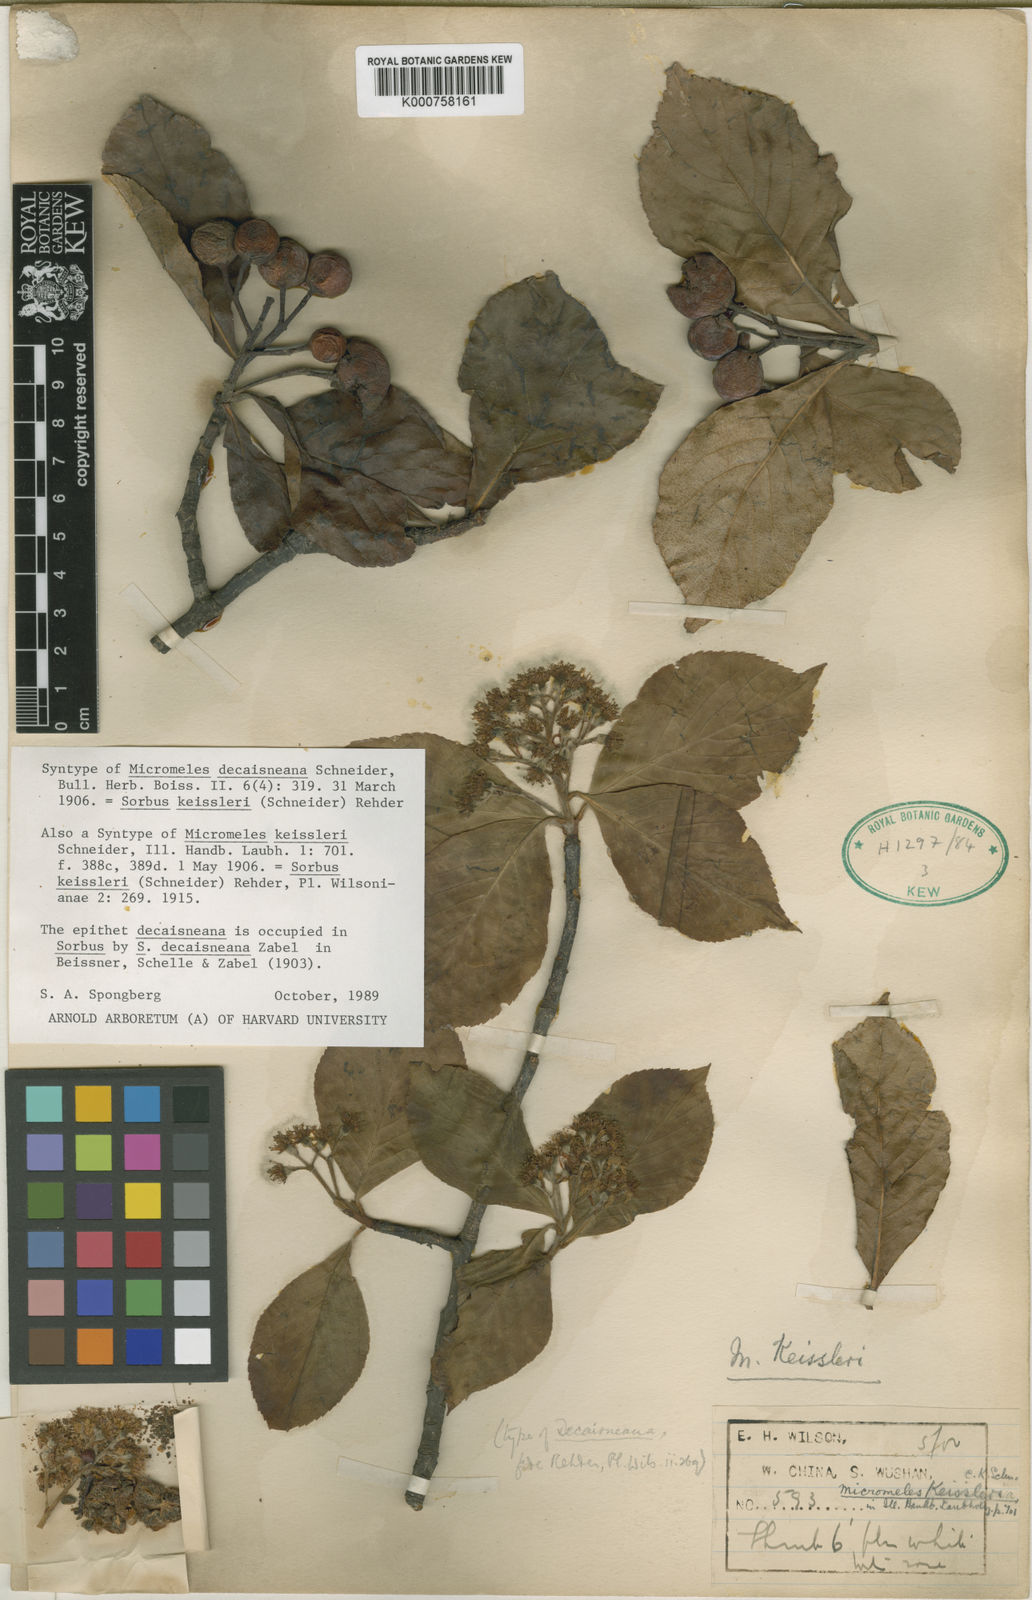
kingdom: Plantae
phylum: Tracheophyta
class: Magnoliopsida
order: Rosales
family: Rosaceae
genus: Sorbus
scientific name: Sorbus decaisneana
